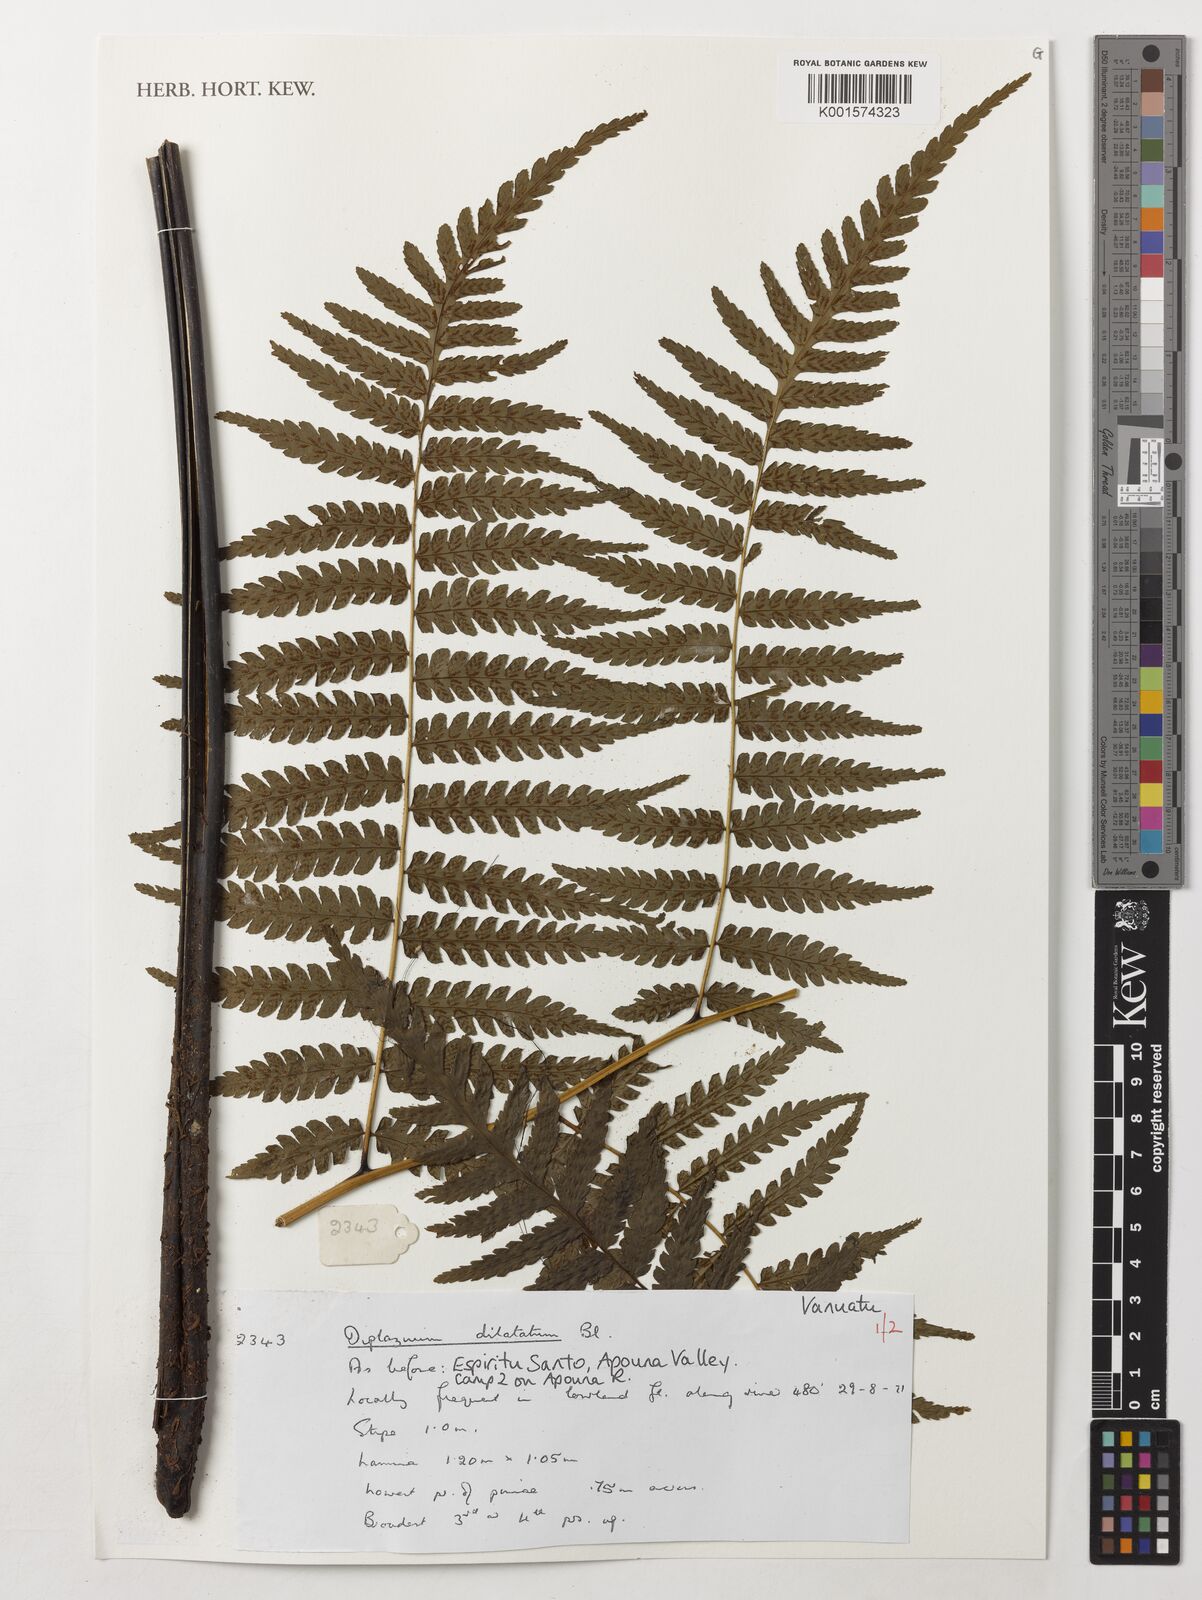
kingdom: Plantae
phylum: Tracheophyta
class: Polypodiopsida
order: Polypodiales
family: Athyriaceae
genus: Diplazium
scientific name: Diplazium dilatatum
